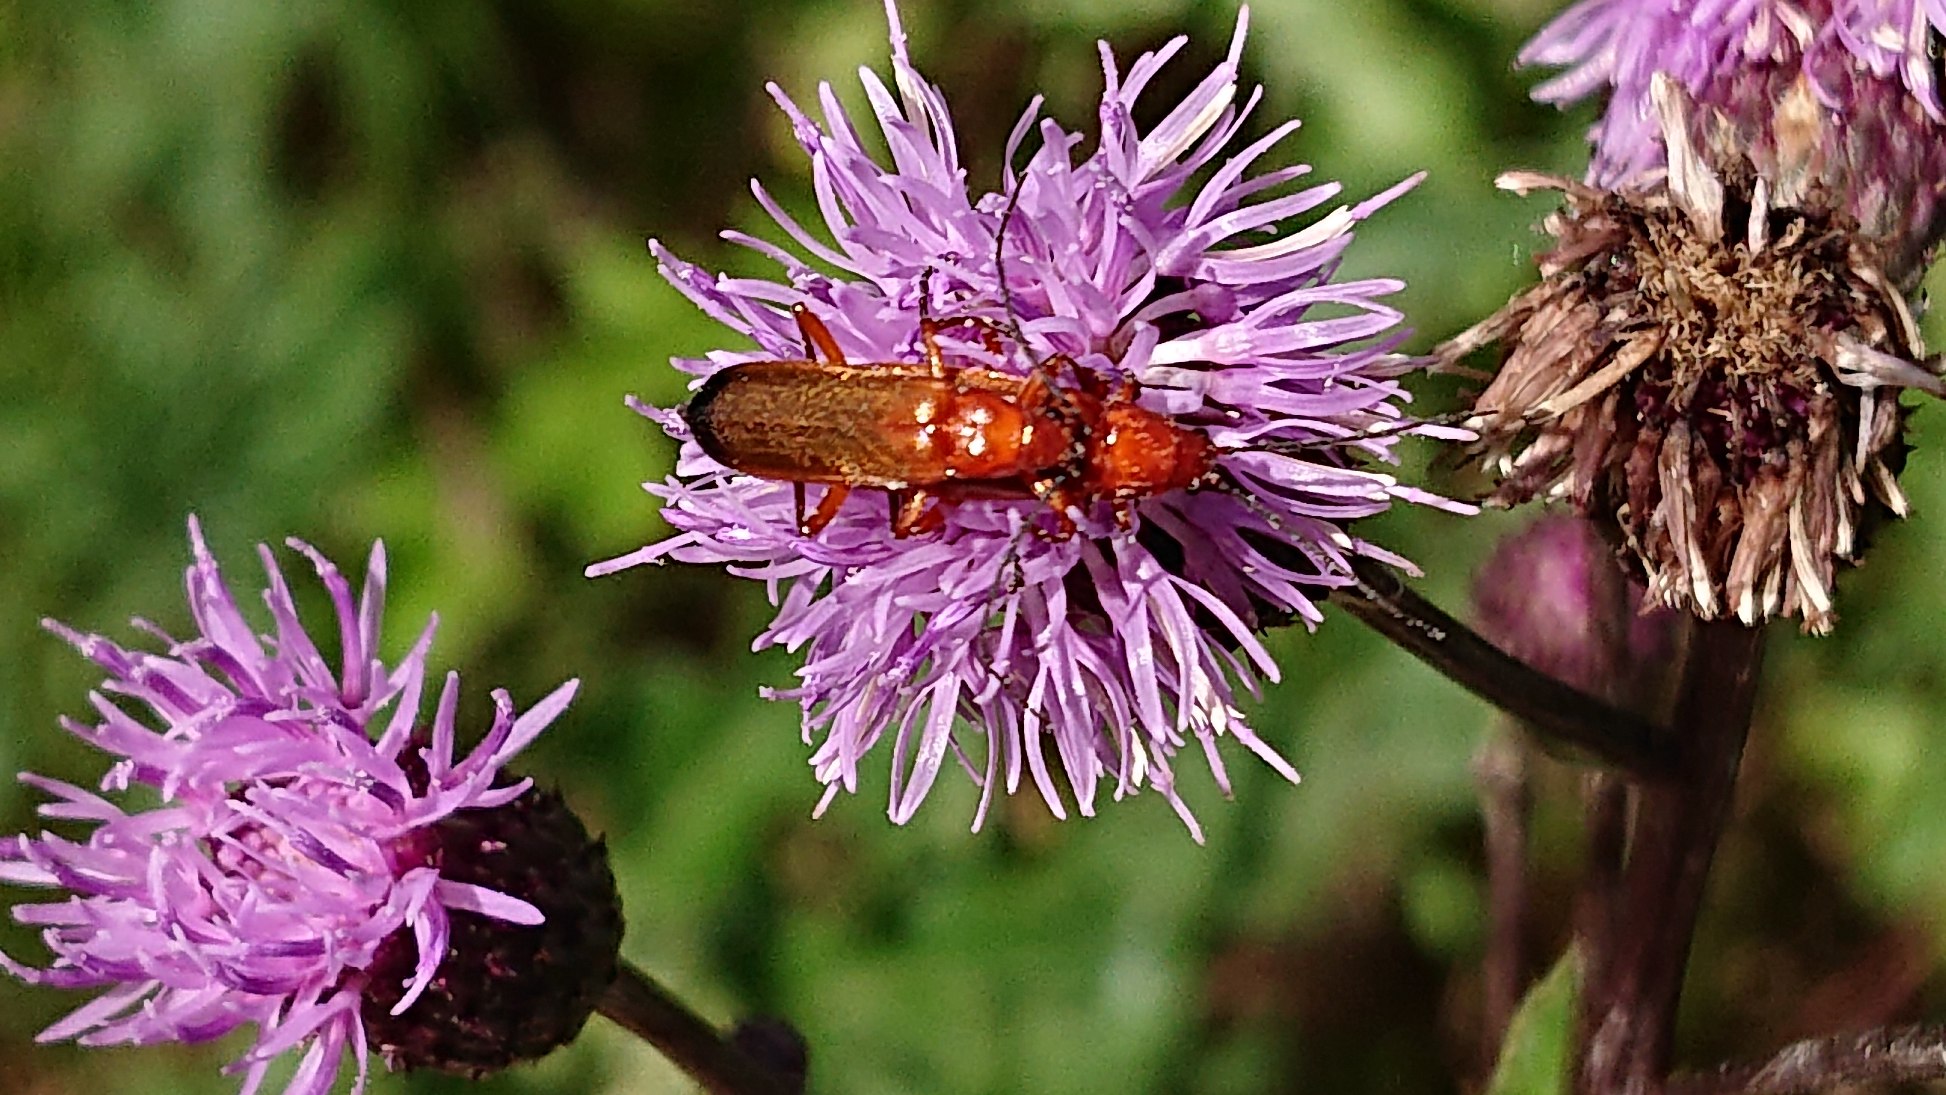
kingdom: Animalia
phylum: Arthropoda
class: Insecta
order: Coleoptera
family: Cantharidae
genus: Rhagonycha
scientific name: Rhagonycha fulva
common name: Præstebille
